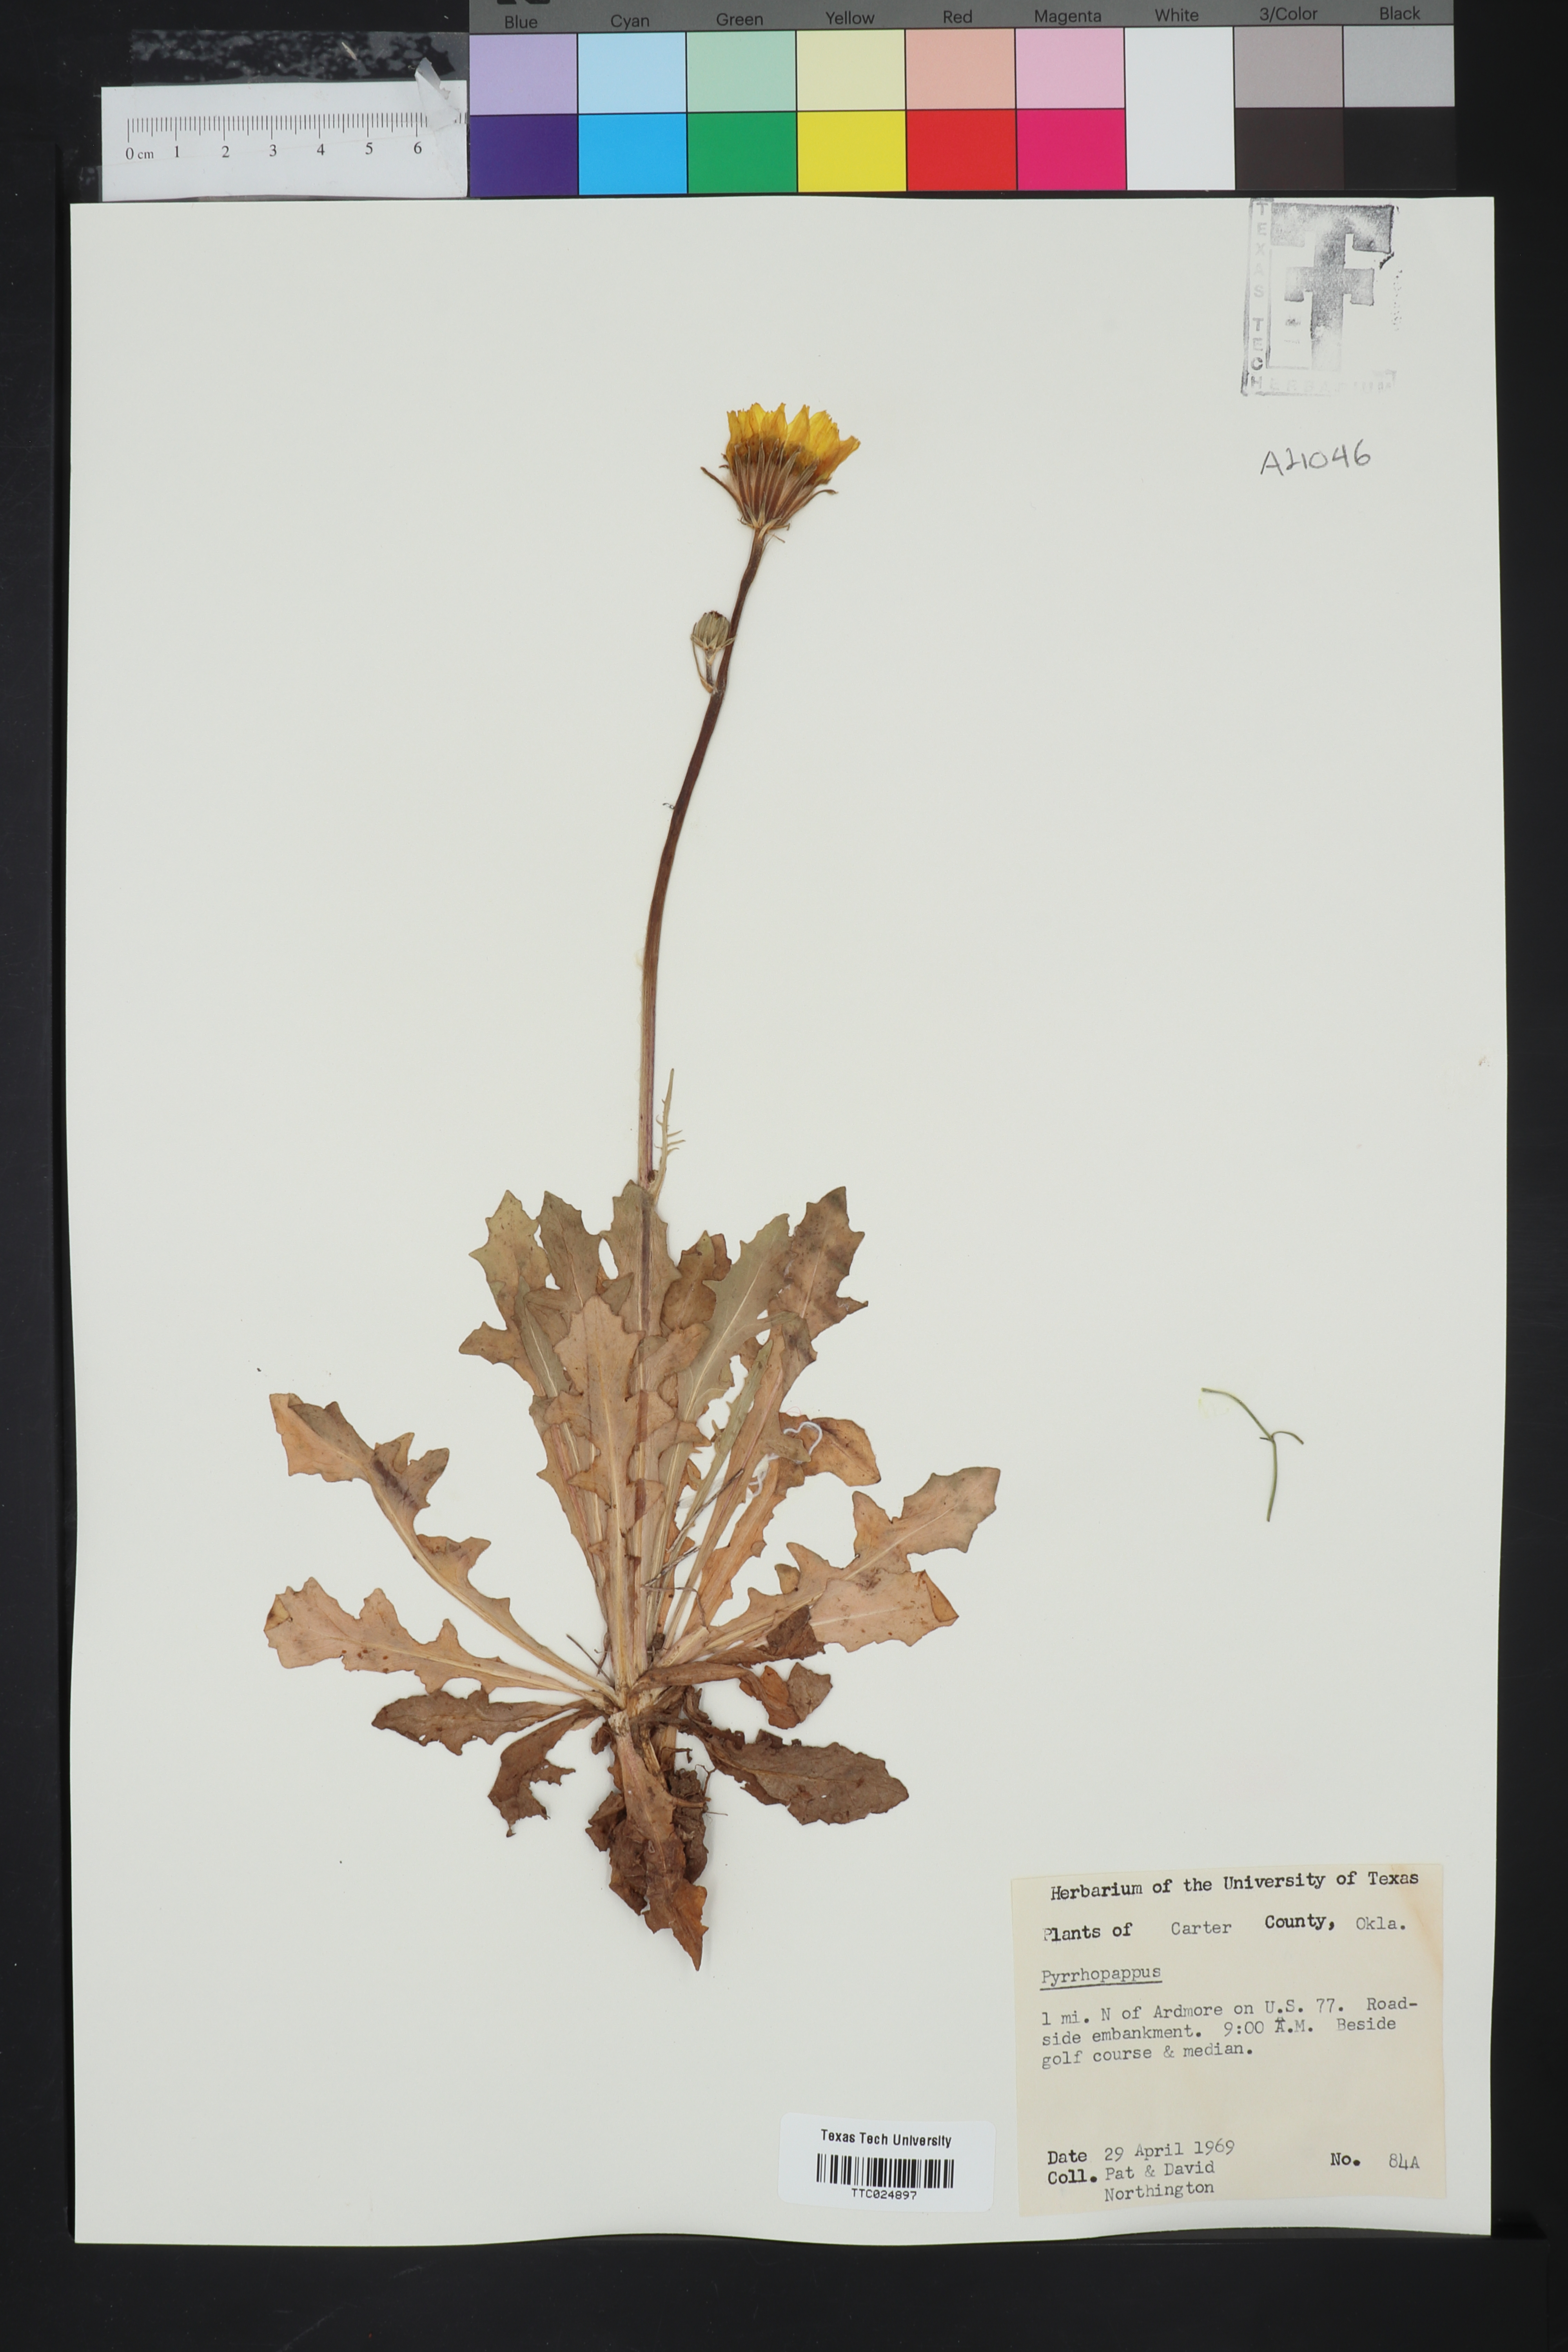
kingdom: Plantae
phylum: Tracheophyta
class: Magnoliopsida
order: Asterales
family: Asteraceae
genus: Pyrrhopappus
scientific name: Pyrrhopappus
